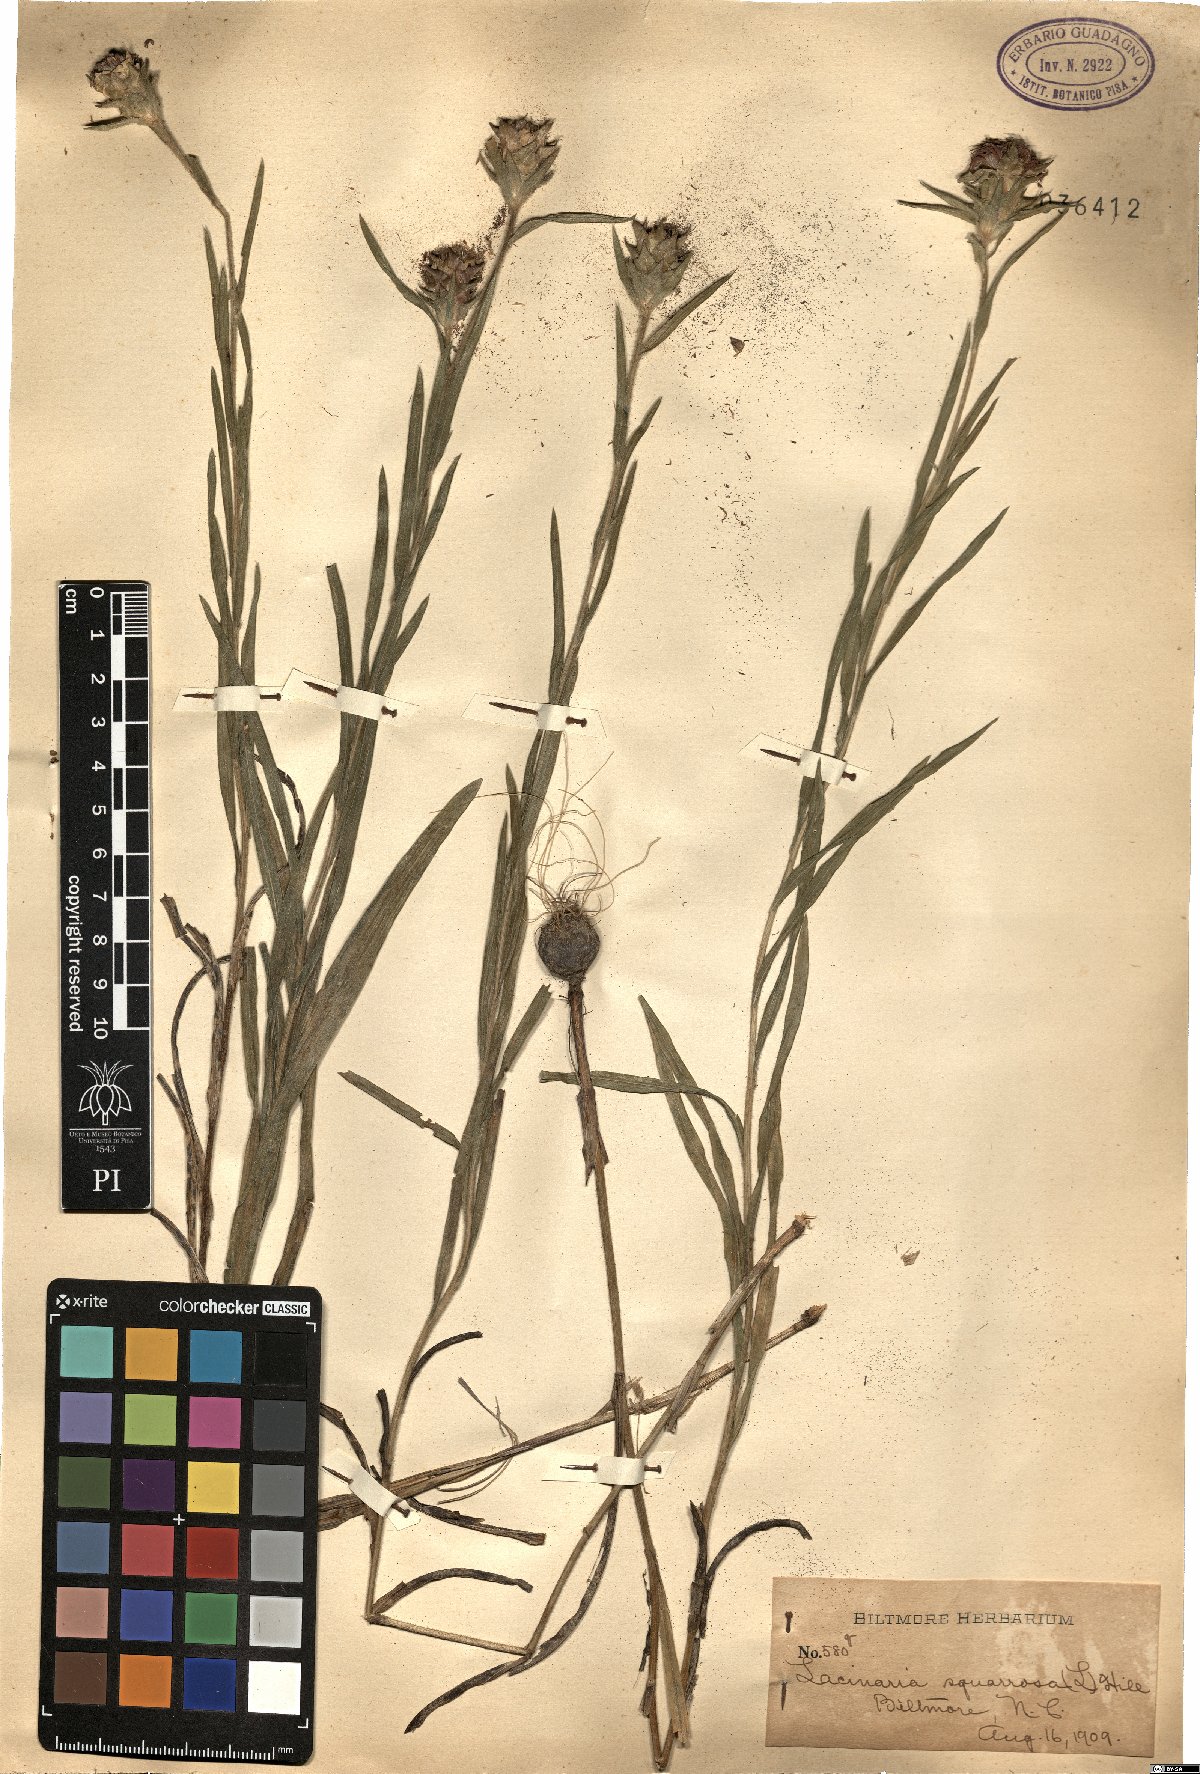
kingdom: Plantae
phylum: Tracheophyta
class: Magnoliopsida
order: Asterales
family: Asteraceae
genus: Liatris
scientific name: Liatris squarrosa
